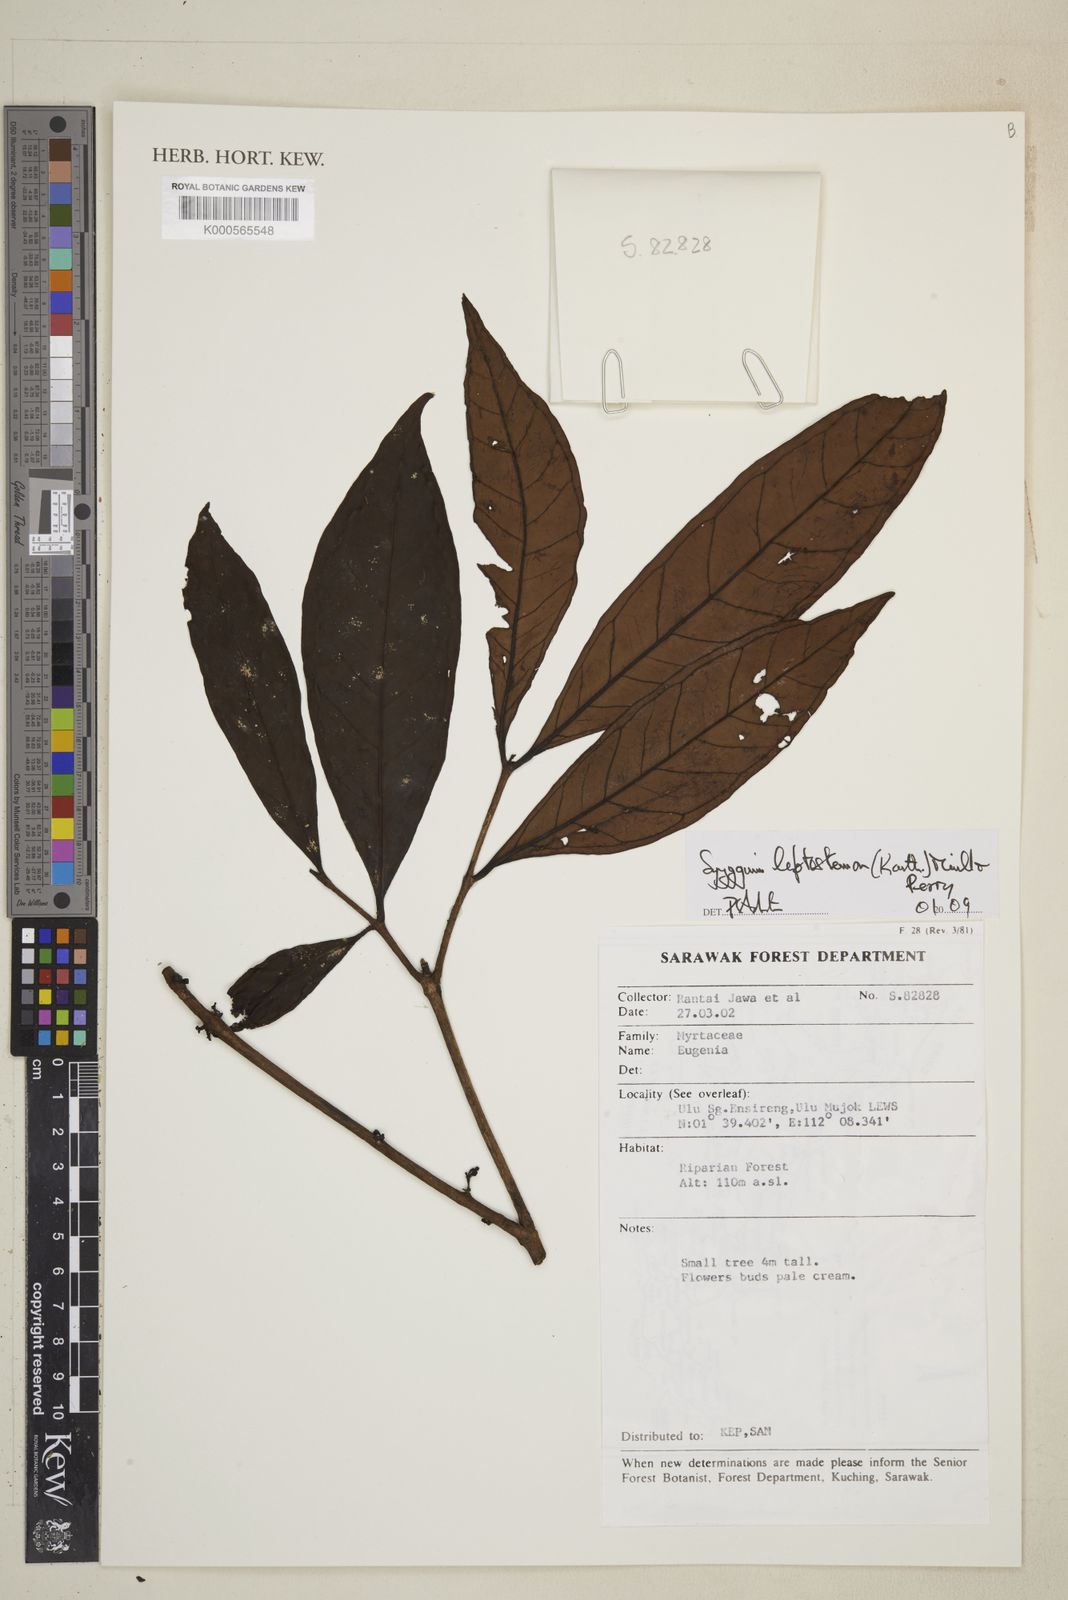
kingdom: Plantae
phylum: Tracheophyta
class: Magnoliopsida
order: Myrtales
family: Myrtaceae
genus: Syzygium
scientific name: Syzygium urceolatum
